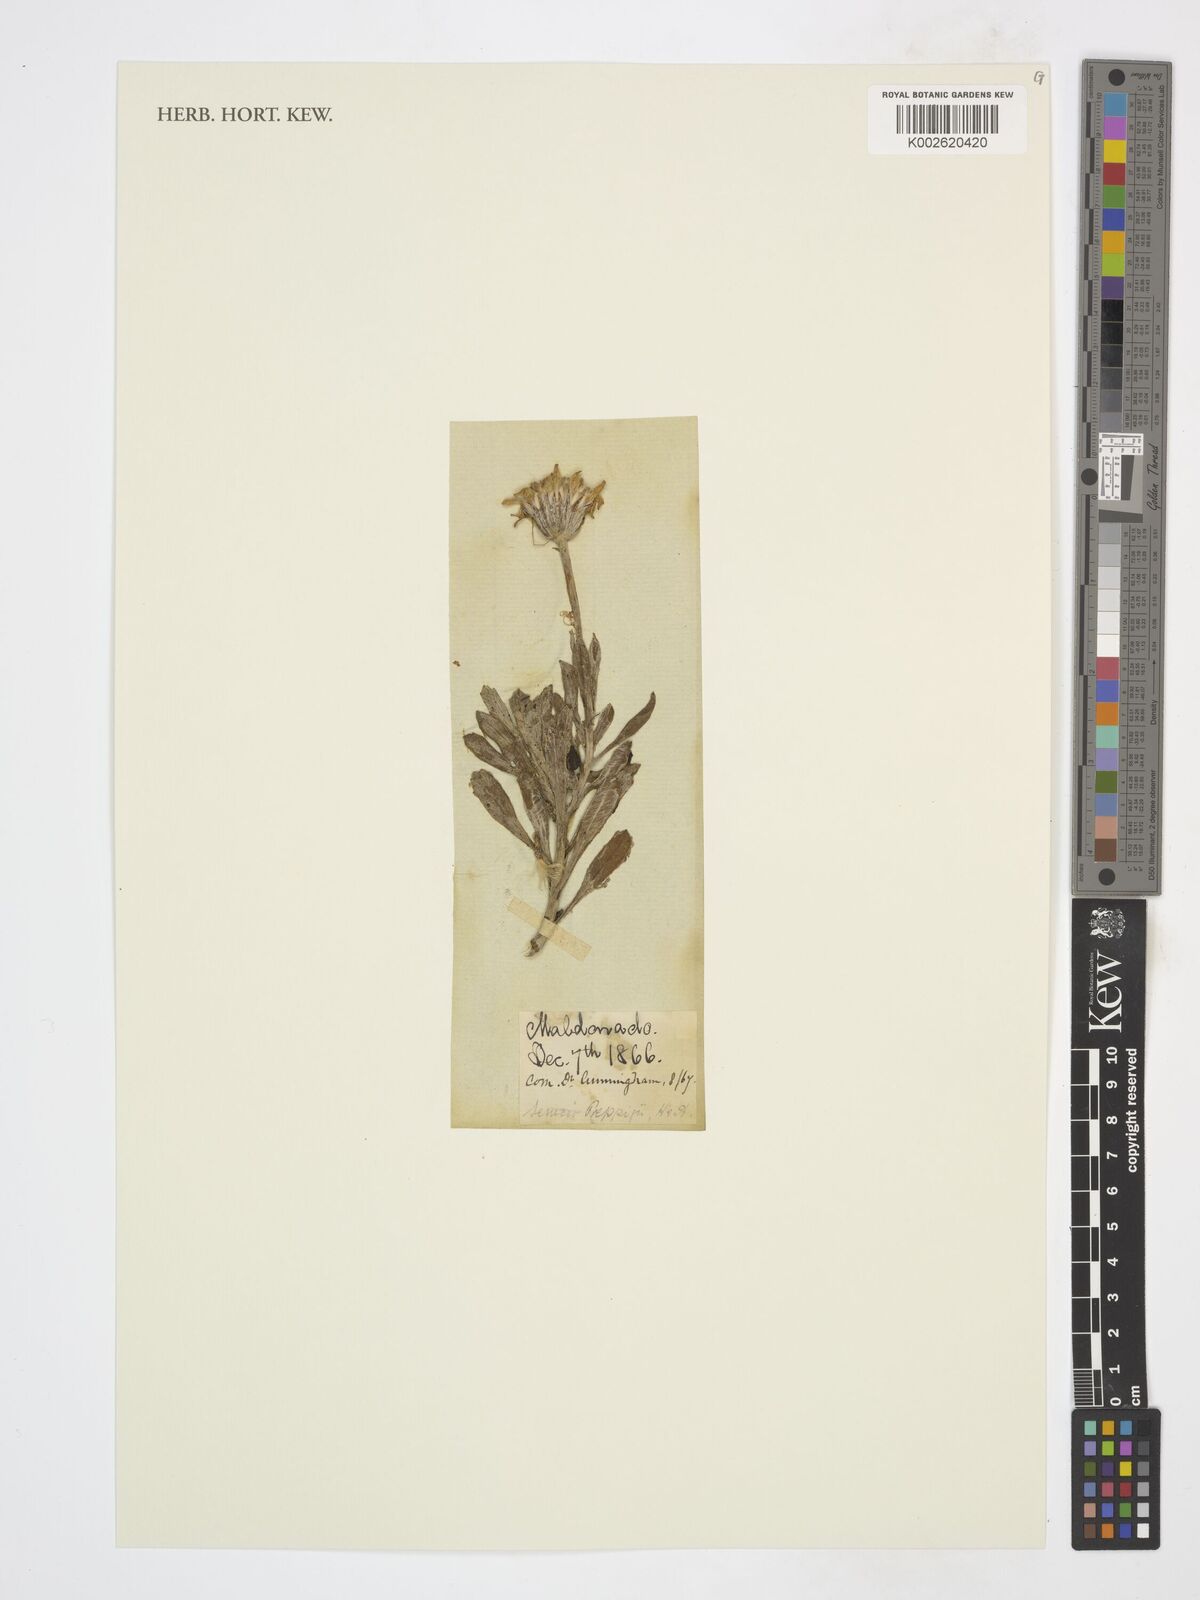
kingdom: Plantae
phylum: Tracheophyta
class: Magnoliopsida
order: Asterales
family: Asteraceae
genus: Senecio
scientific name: Senecio
